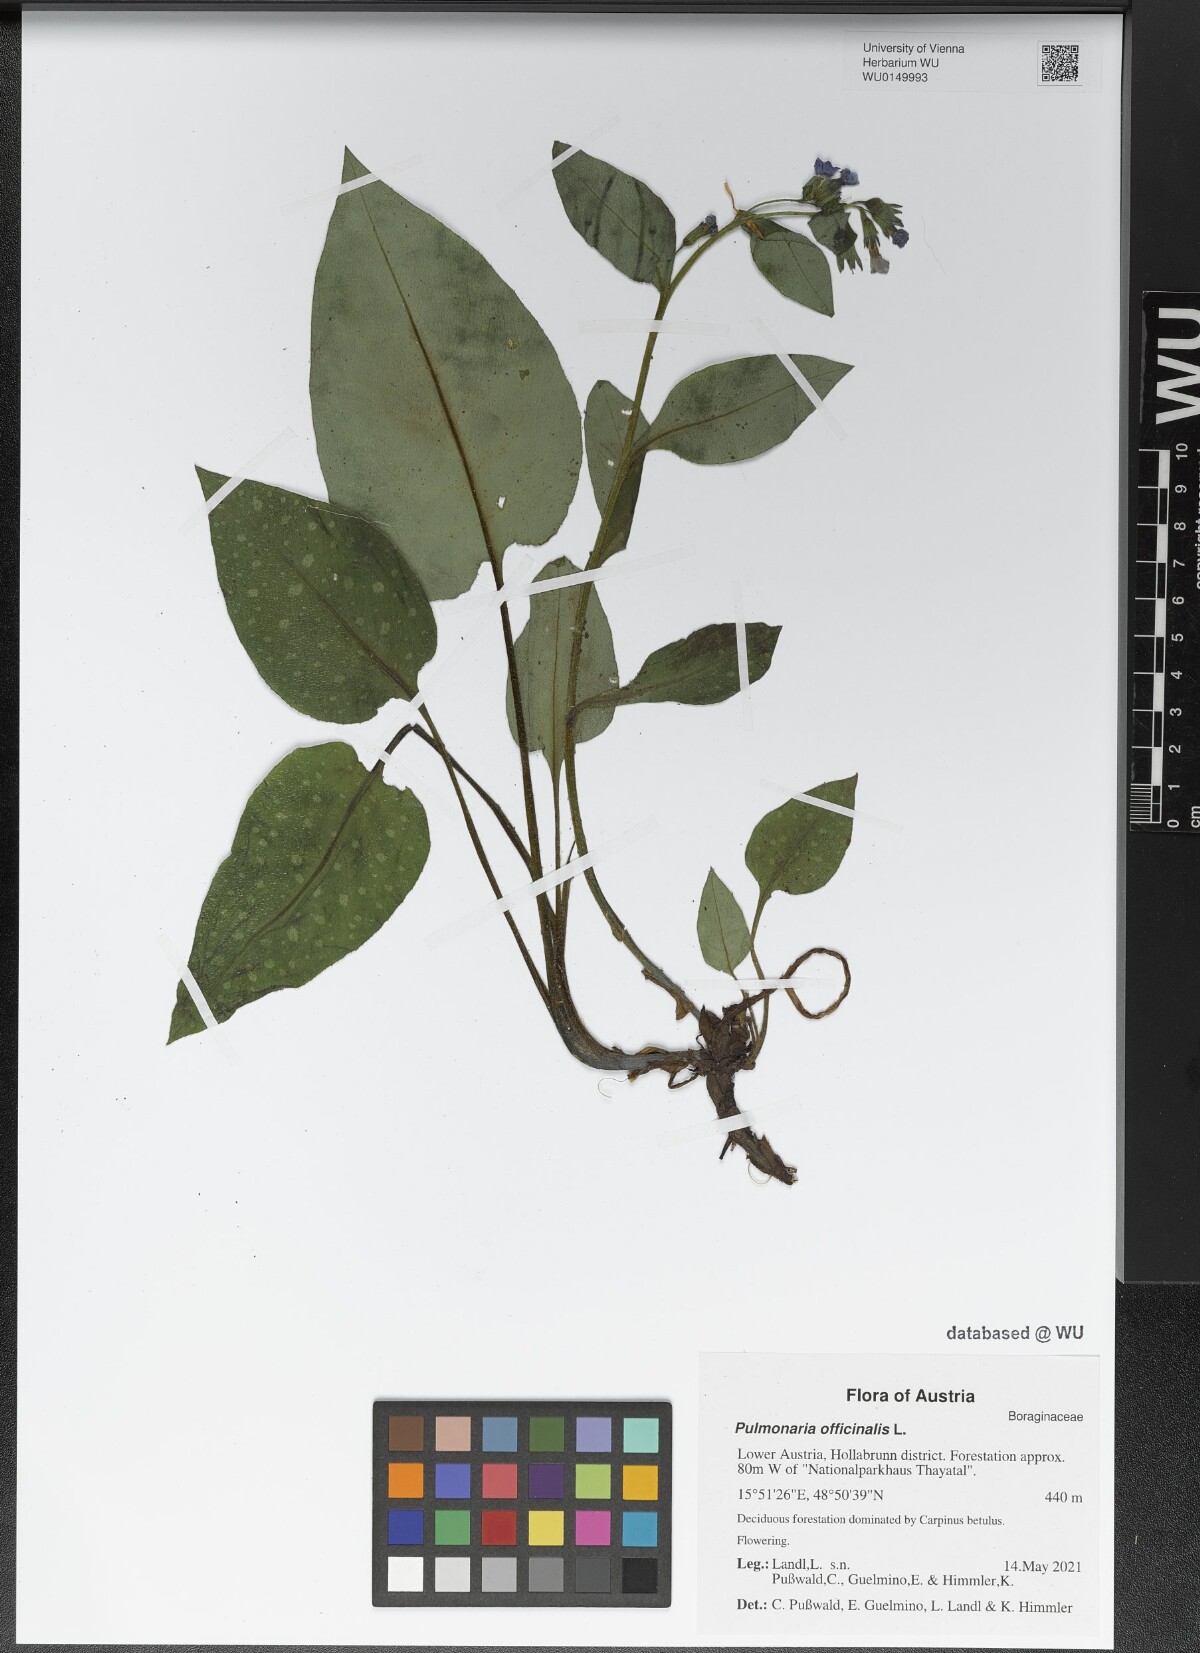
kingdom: Plantae
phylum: Tracheophyta
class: Magnoliopsida
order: Boraginales
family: Boraginaceae
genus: Pulmonaria
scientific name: Pulmonaria officinalis
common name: Lungwort
